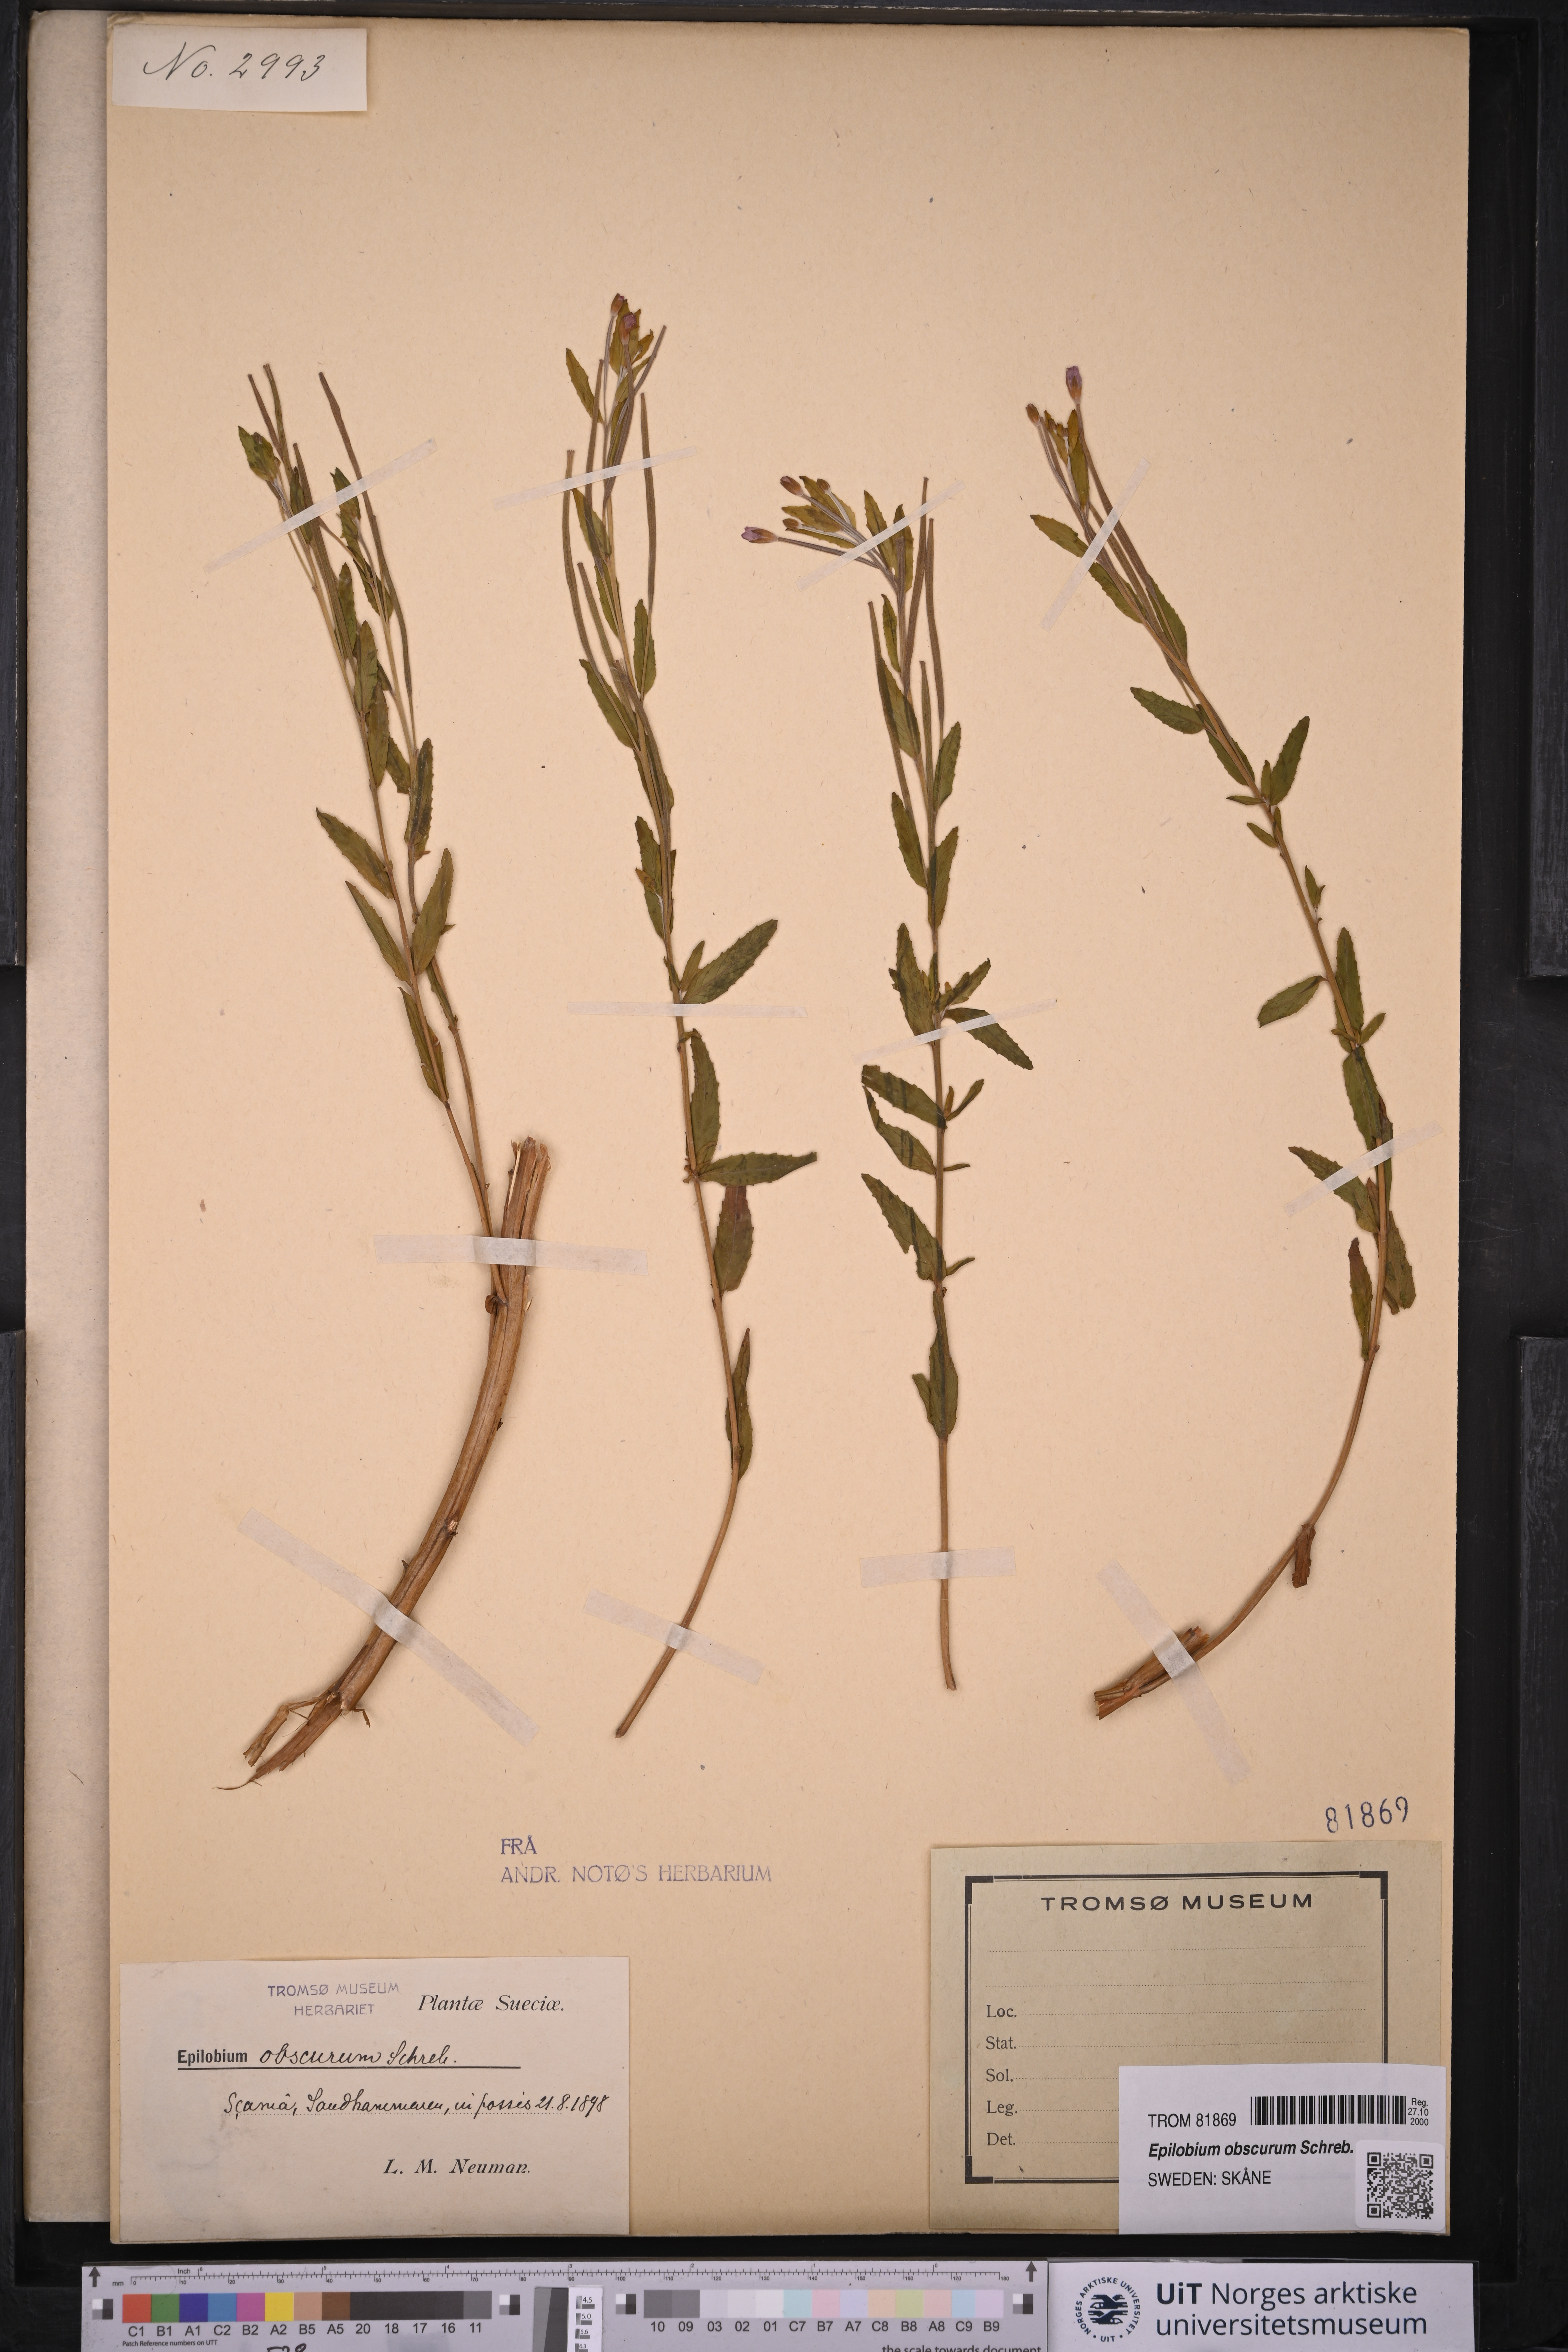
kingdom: Plantae
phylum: Tracheophyta
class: Magnoliopsida
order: Myrtales
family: Onagraceae
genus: Epilobium
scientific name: Epilobium obscurum
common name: Short-fruited willowherb
